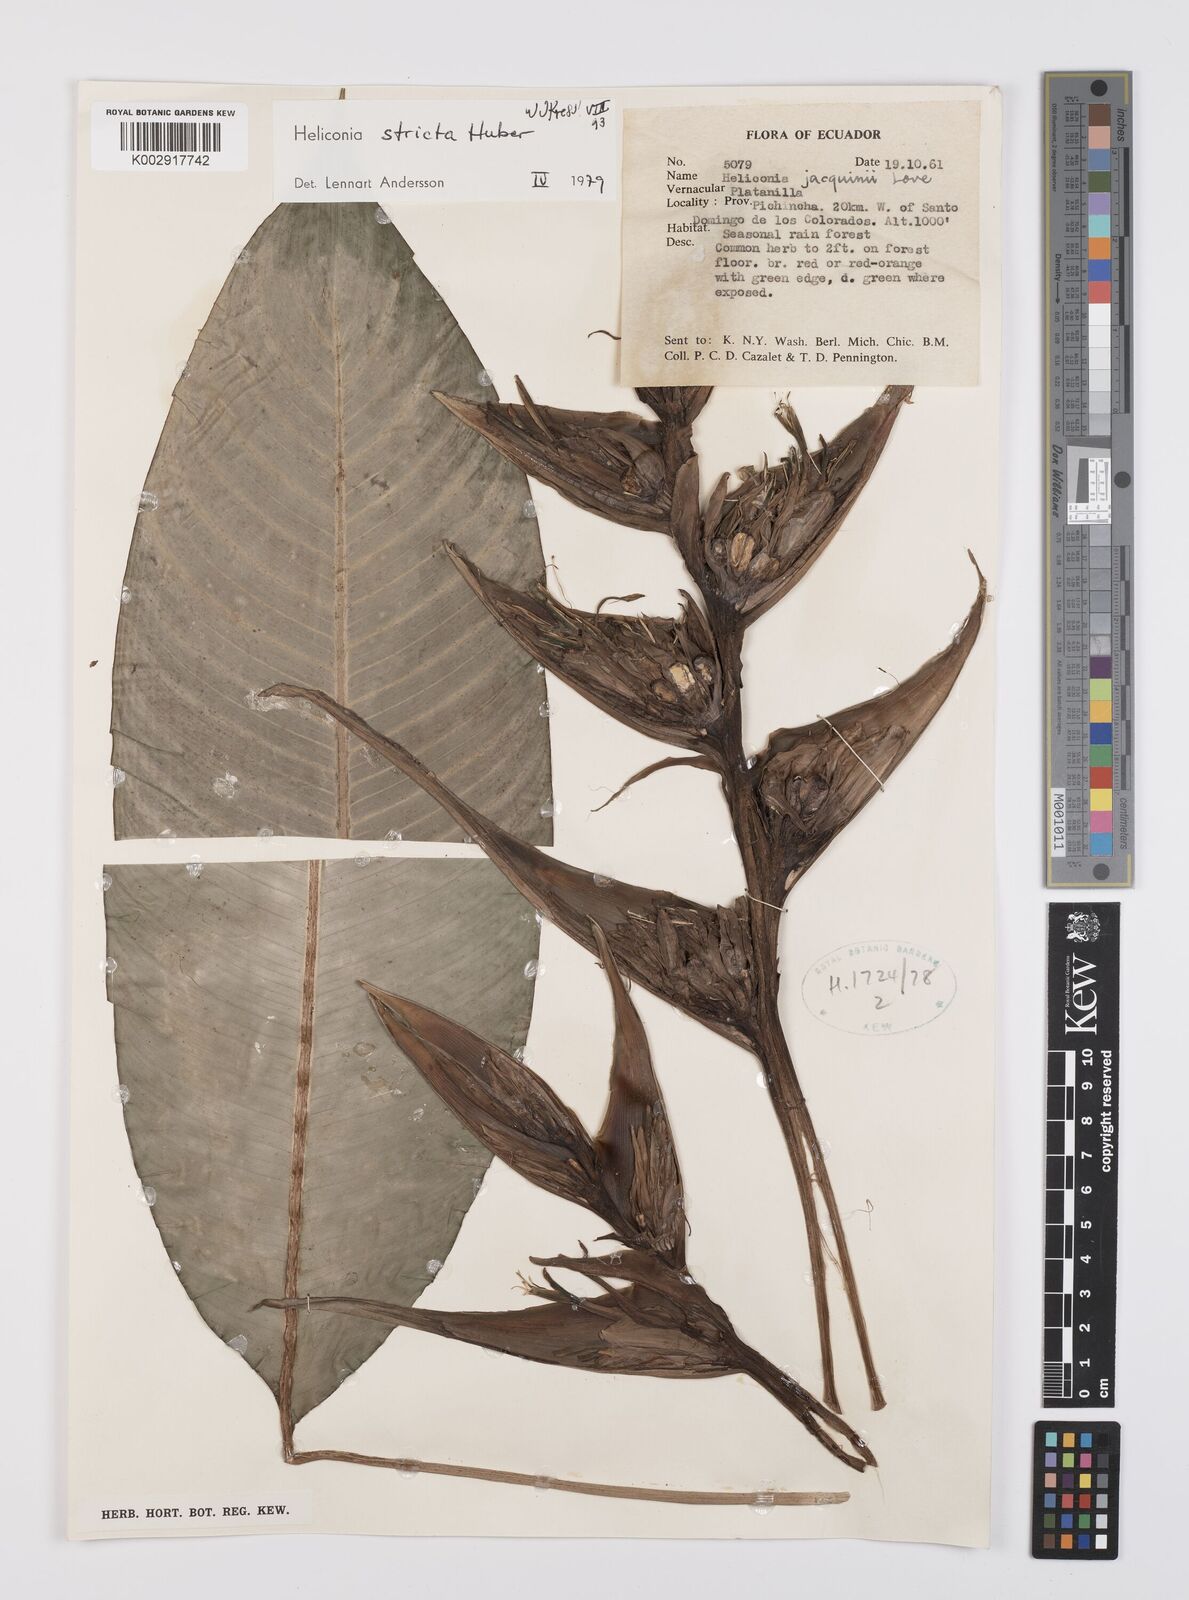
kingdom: Plantae
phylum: Tracheophyta
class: Liliopsida
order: Zingiberales
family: Heliconiaceae
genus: Heliconia
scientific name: Heliconia stricta
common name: Small lobster claw
